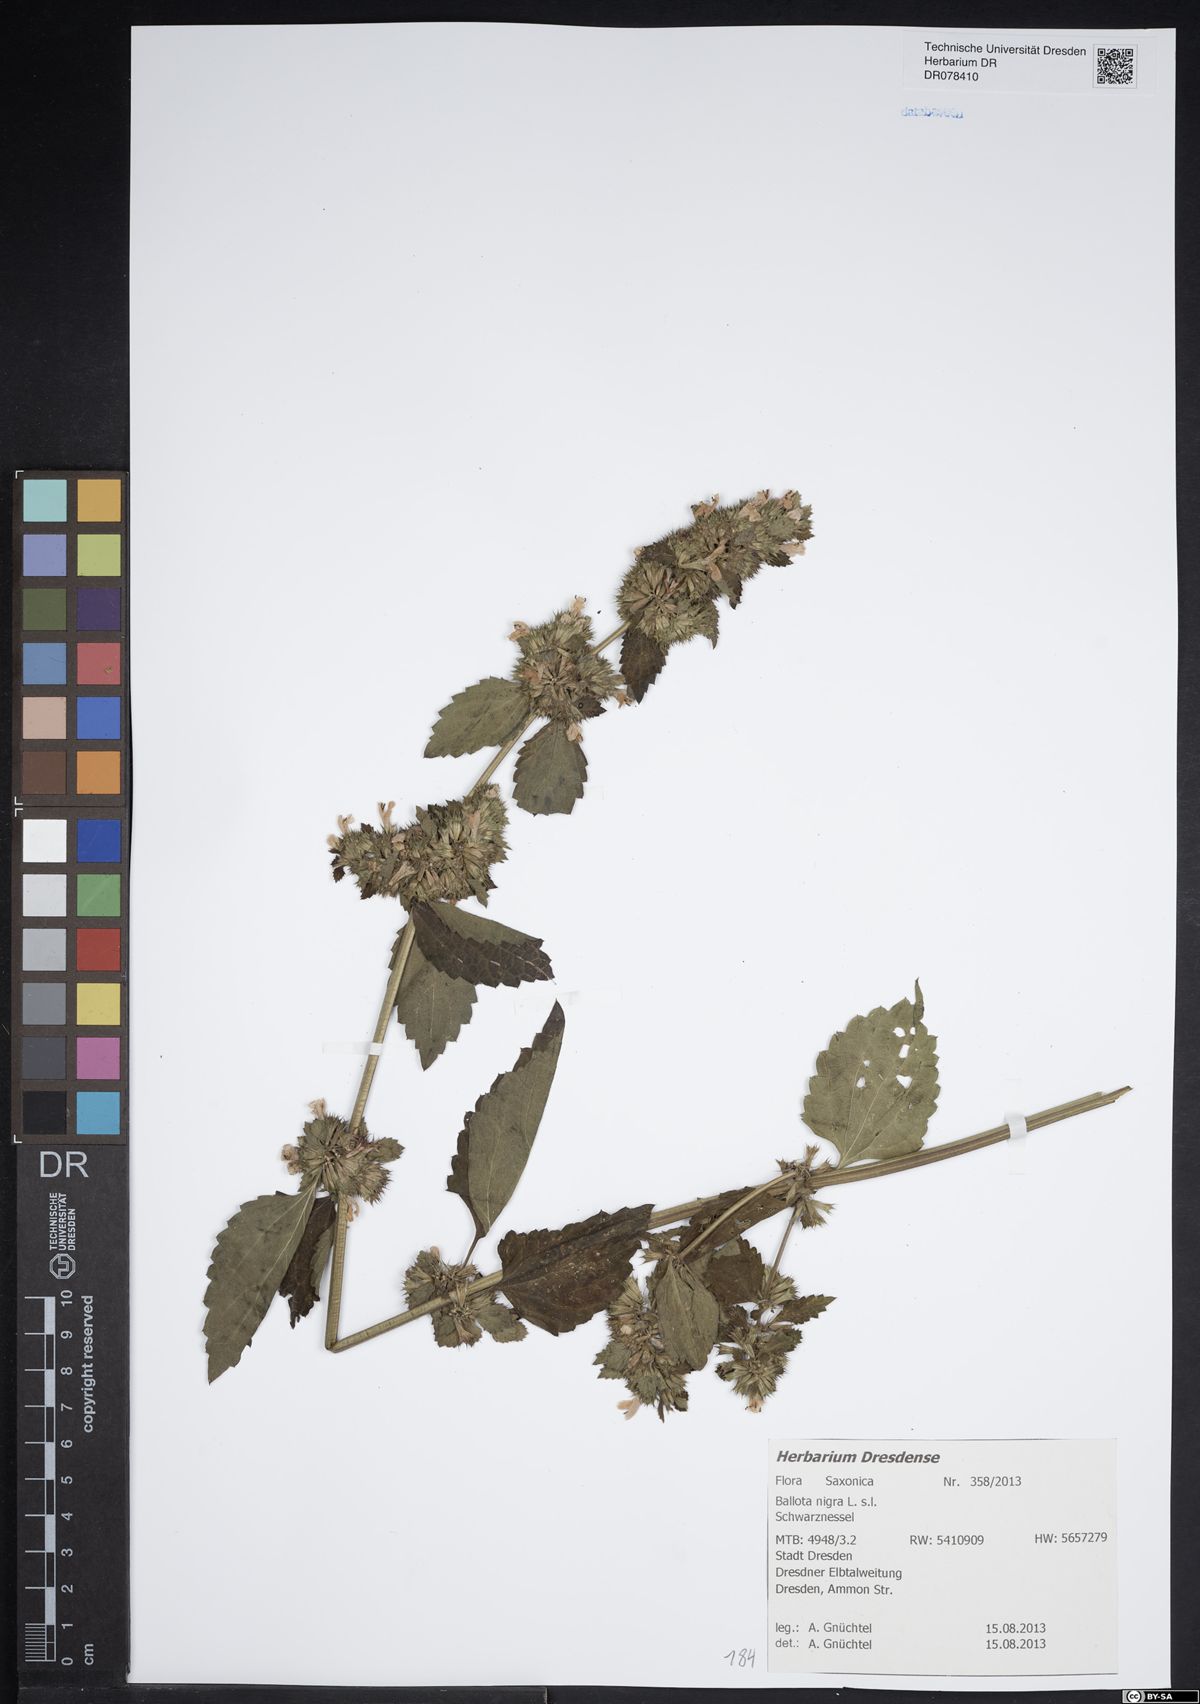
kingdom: Plantae
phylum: Tracheophyta
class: Magnoliopsida
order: Lamiales
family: Lamiaceae
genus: Ballota
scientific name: Ballota nigra
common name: Black horehound
